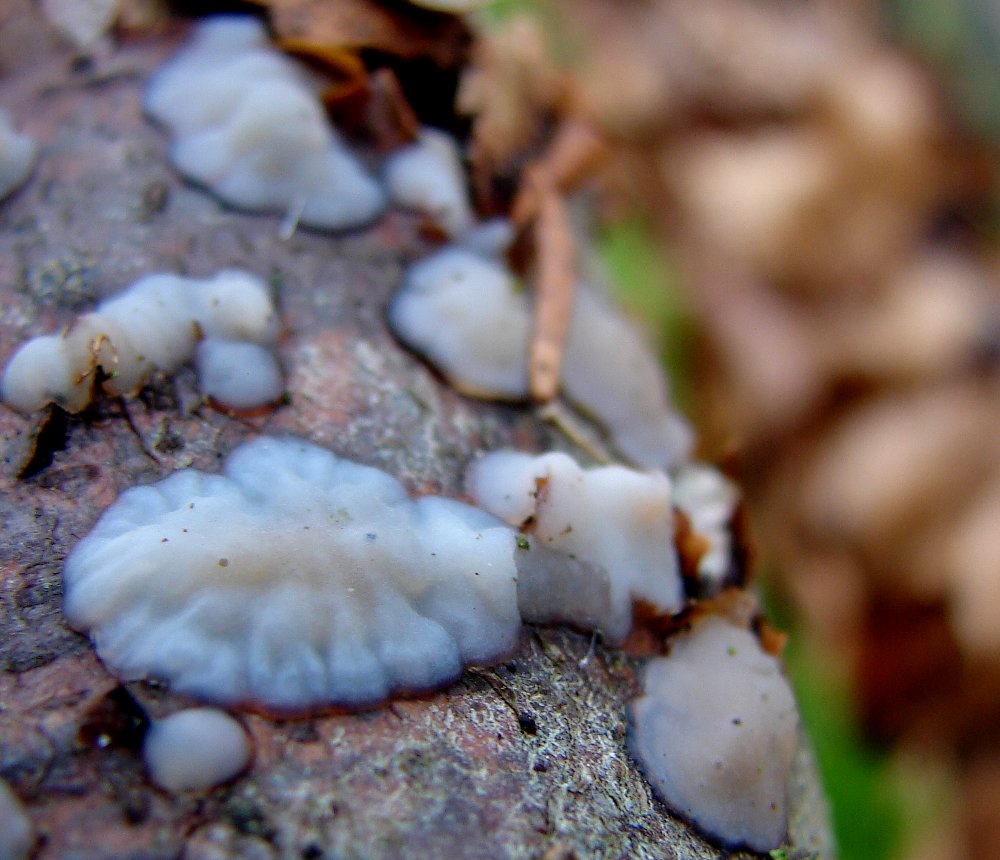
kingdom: Fungi
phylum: Basidiomycota
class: Agaricomycetes
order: Auriculariales
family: Auriculariaceae
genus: Exidia
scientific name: Exidia thuretiana
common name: hvidlig bævretop
